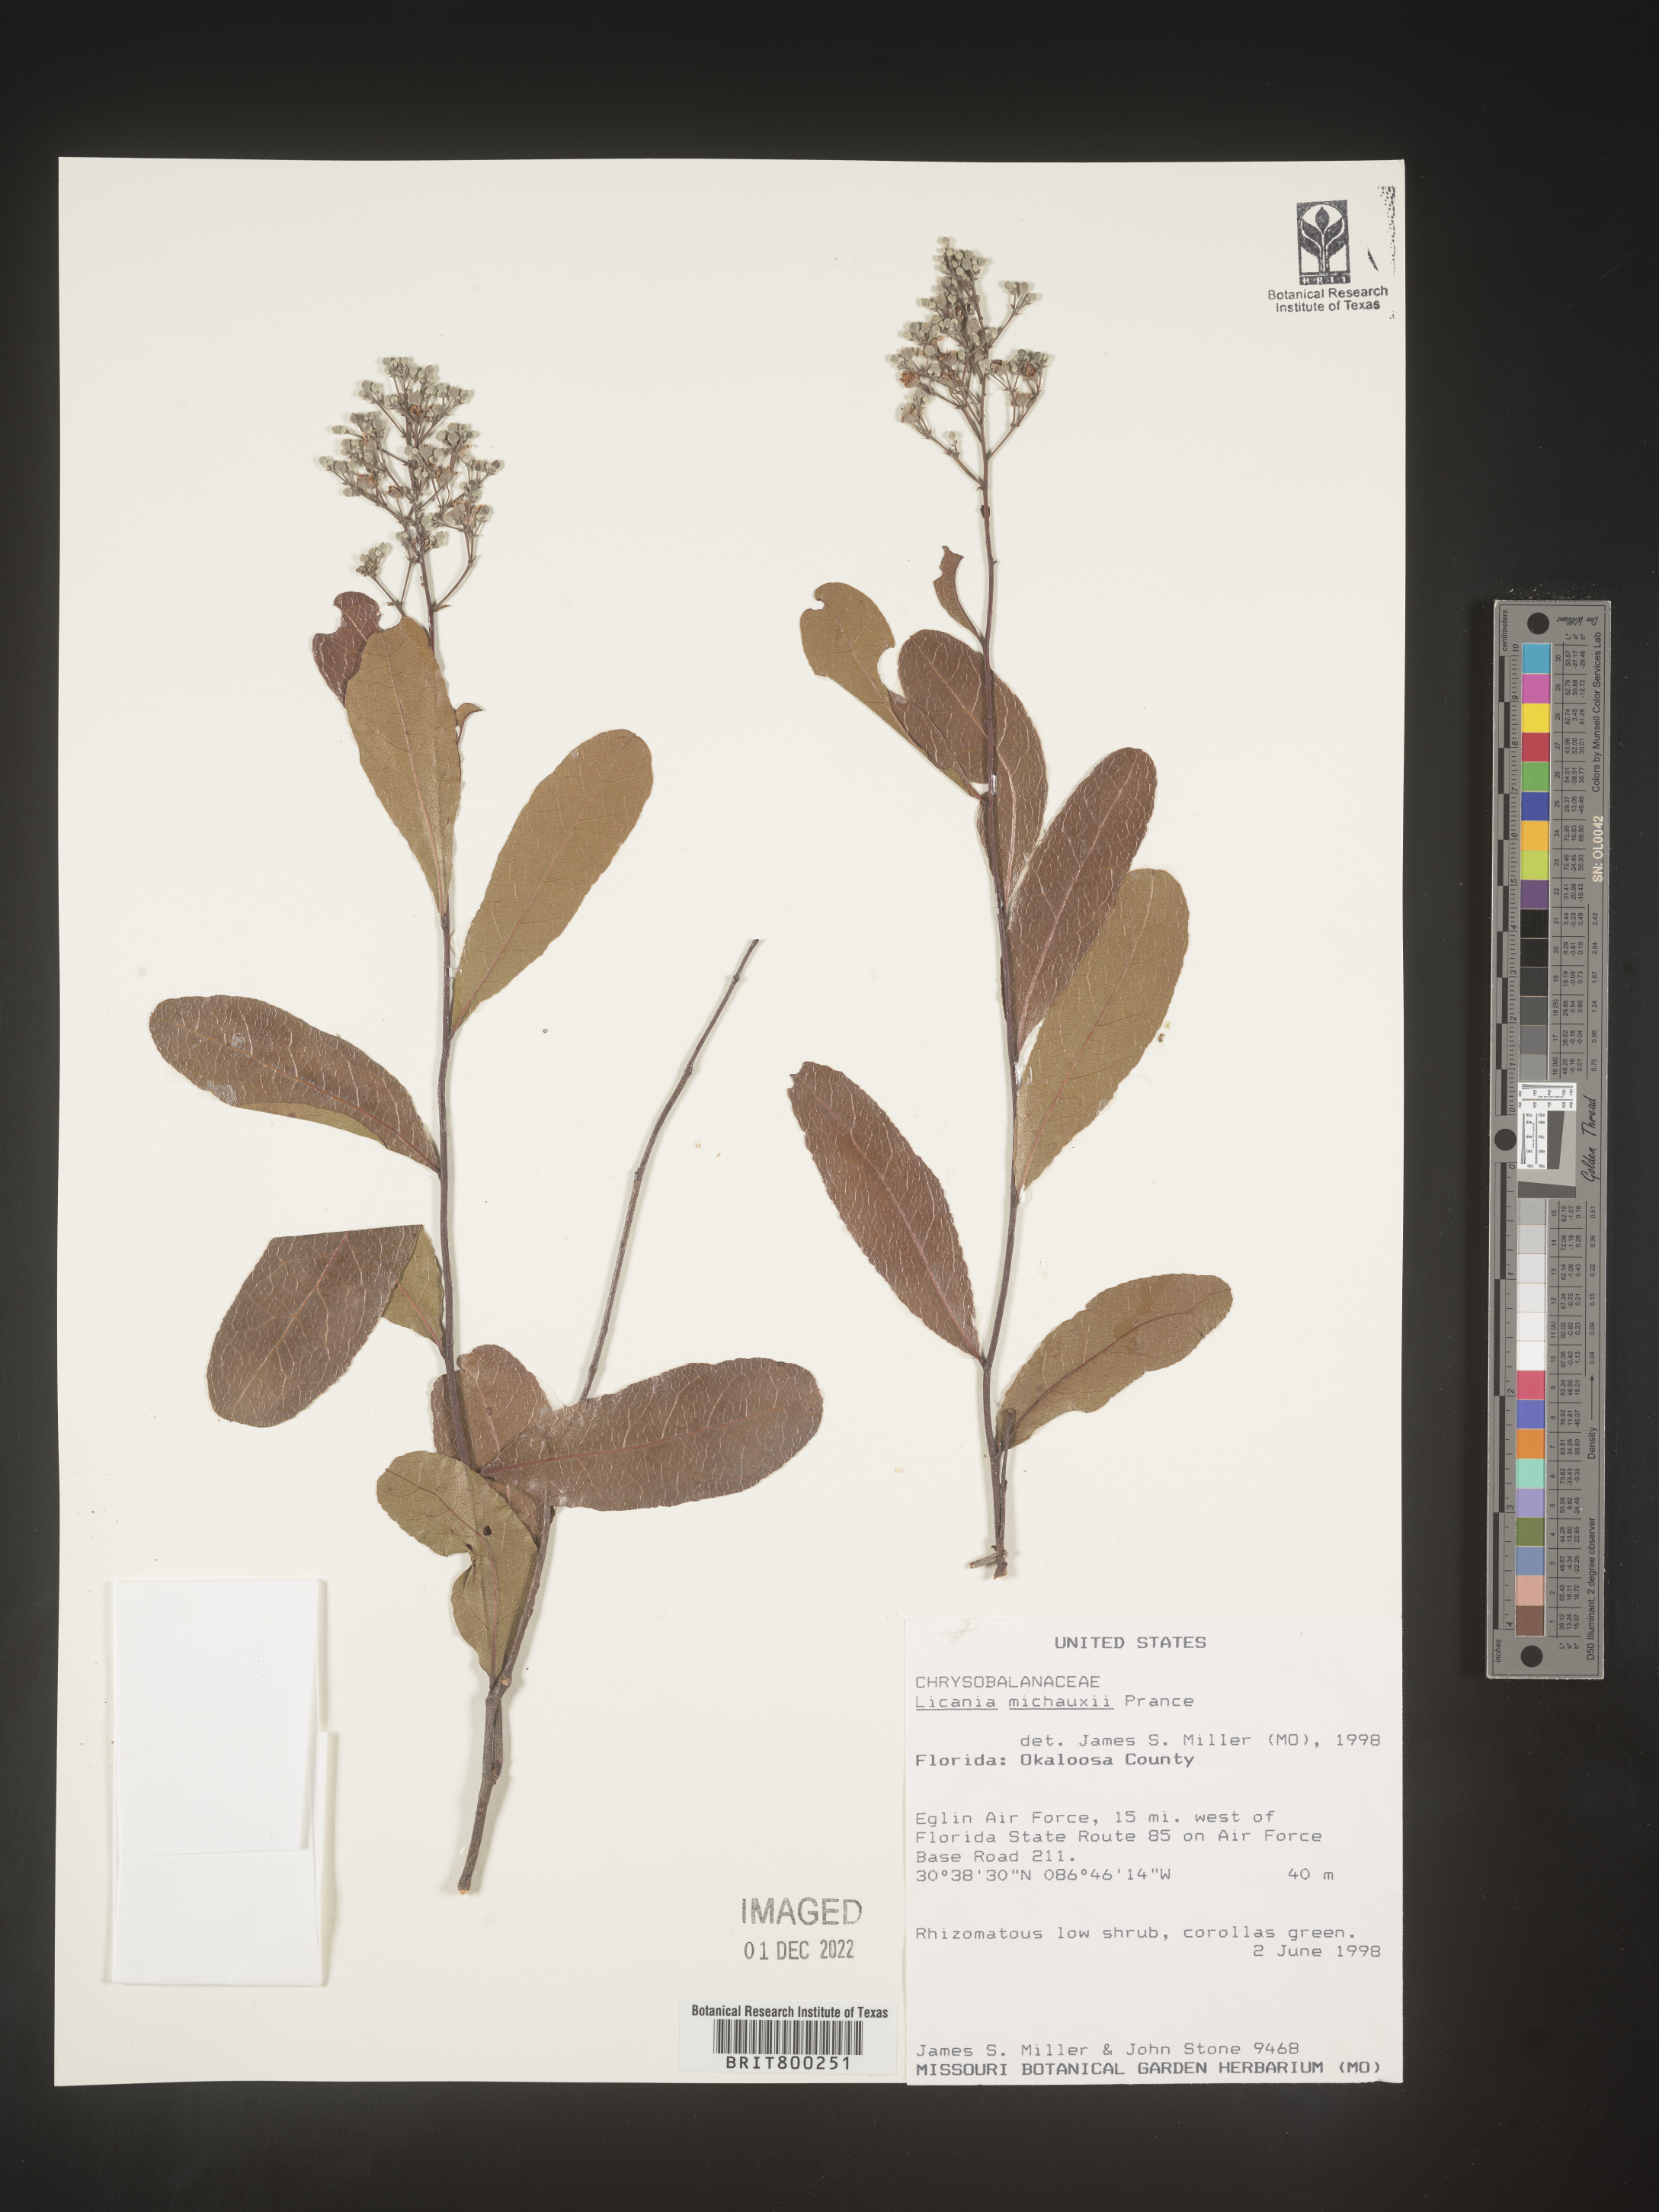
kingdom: Plantae
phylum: Tracheophyta
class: Magnoliopsida
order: Malpighiales
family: Chrysobalanaceae
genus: Geobalanus
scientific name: Geobalanus oblongifolius
